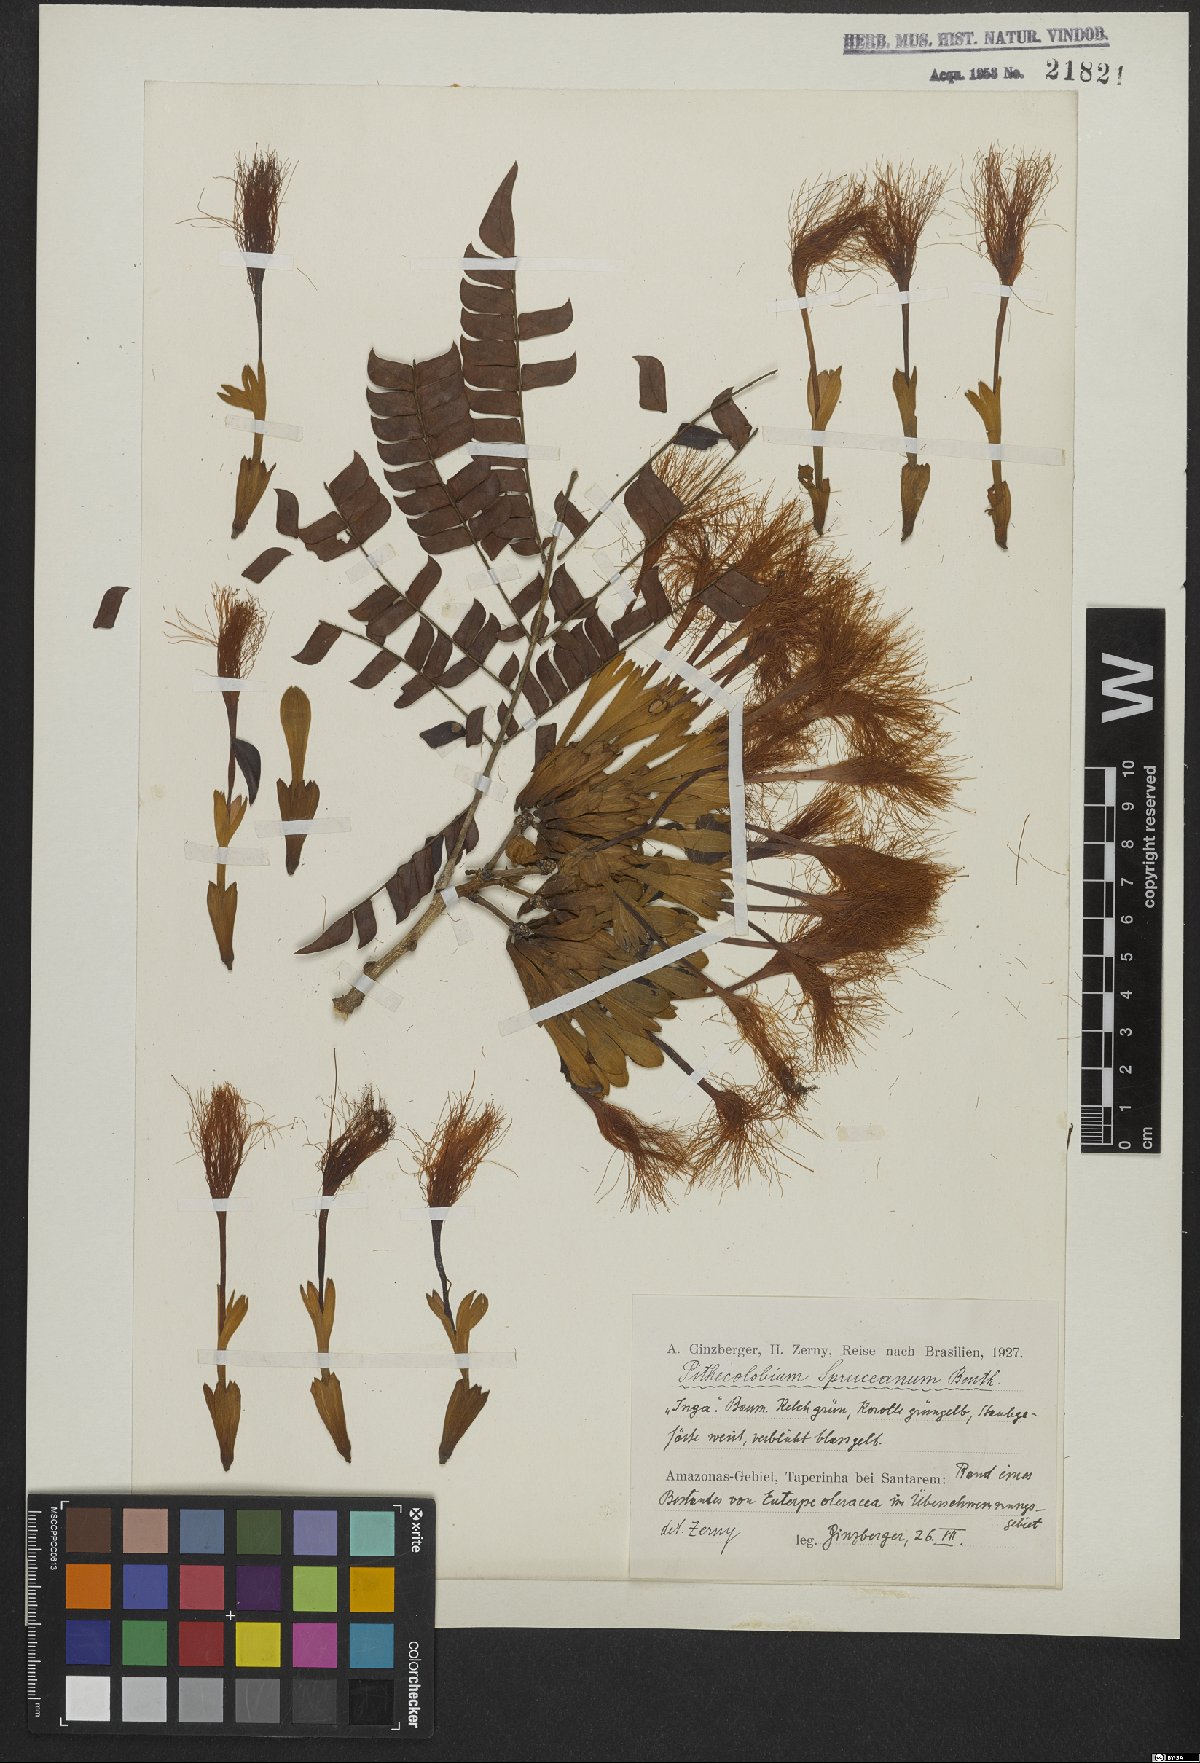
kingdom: Plantae
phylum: Tracheophyta
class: Magnoliopsida
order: Fabales
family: Fabaceae
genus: Macrosamanea
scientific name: Macrosamanea spruceana
